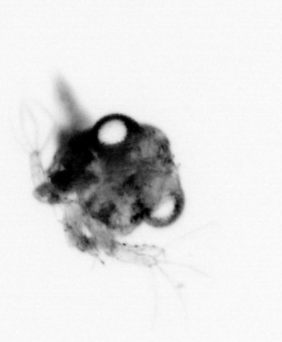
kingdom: Animalia
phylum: Arthropoda
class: Malacostraca
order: Decapoda
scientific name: Decapoda
